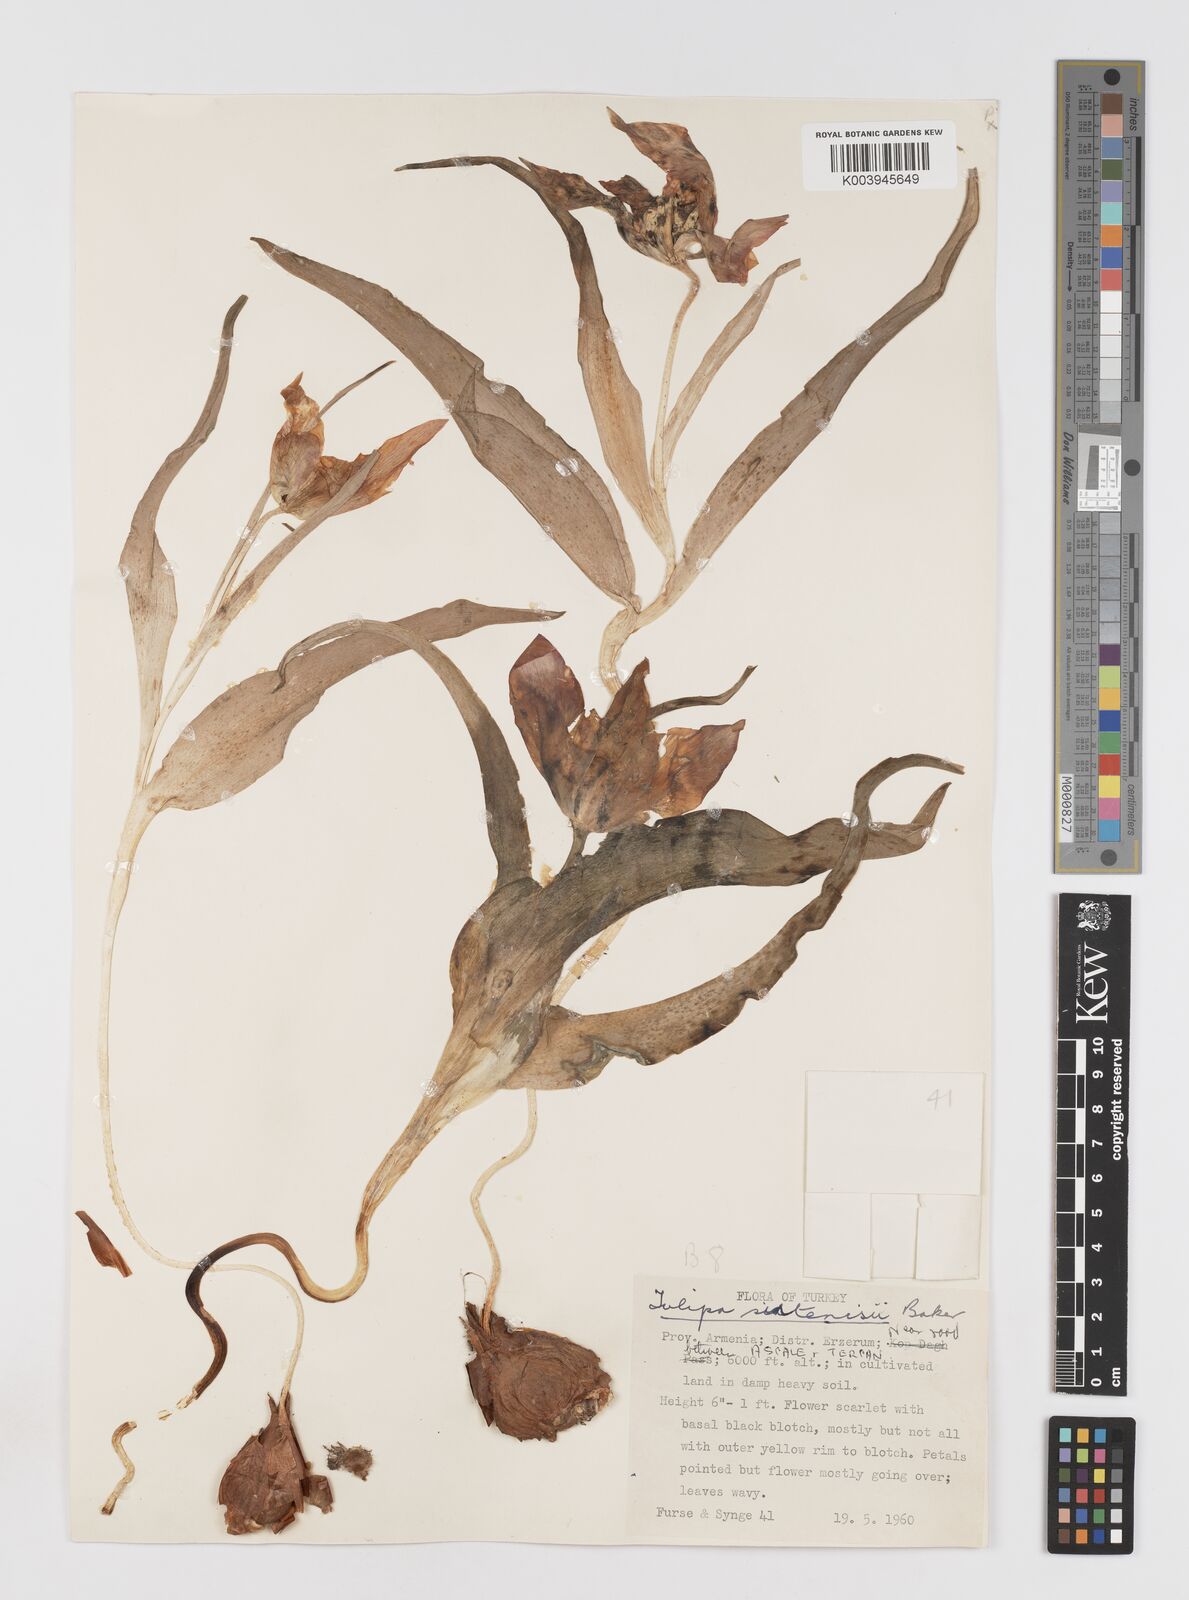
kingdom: Plantae
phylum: Tracheophyta
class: Liliopsida
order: Liliales
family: Liliaceae
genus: Tulipa
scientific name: Tulipa aleppensis
